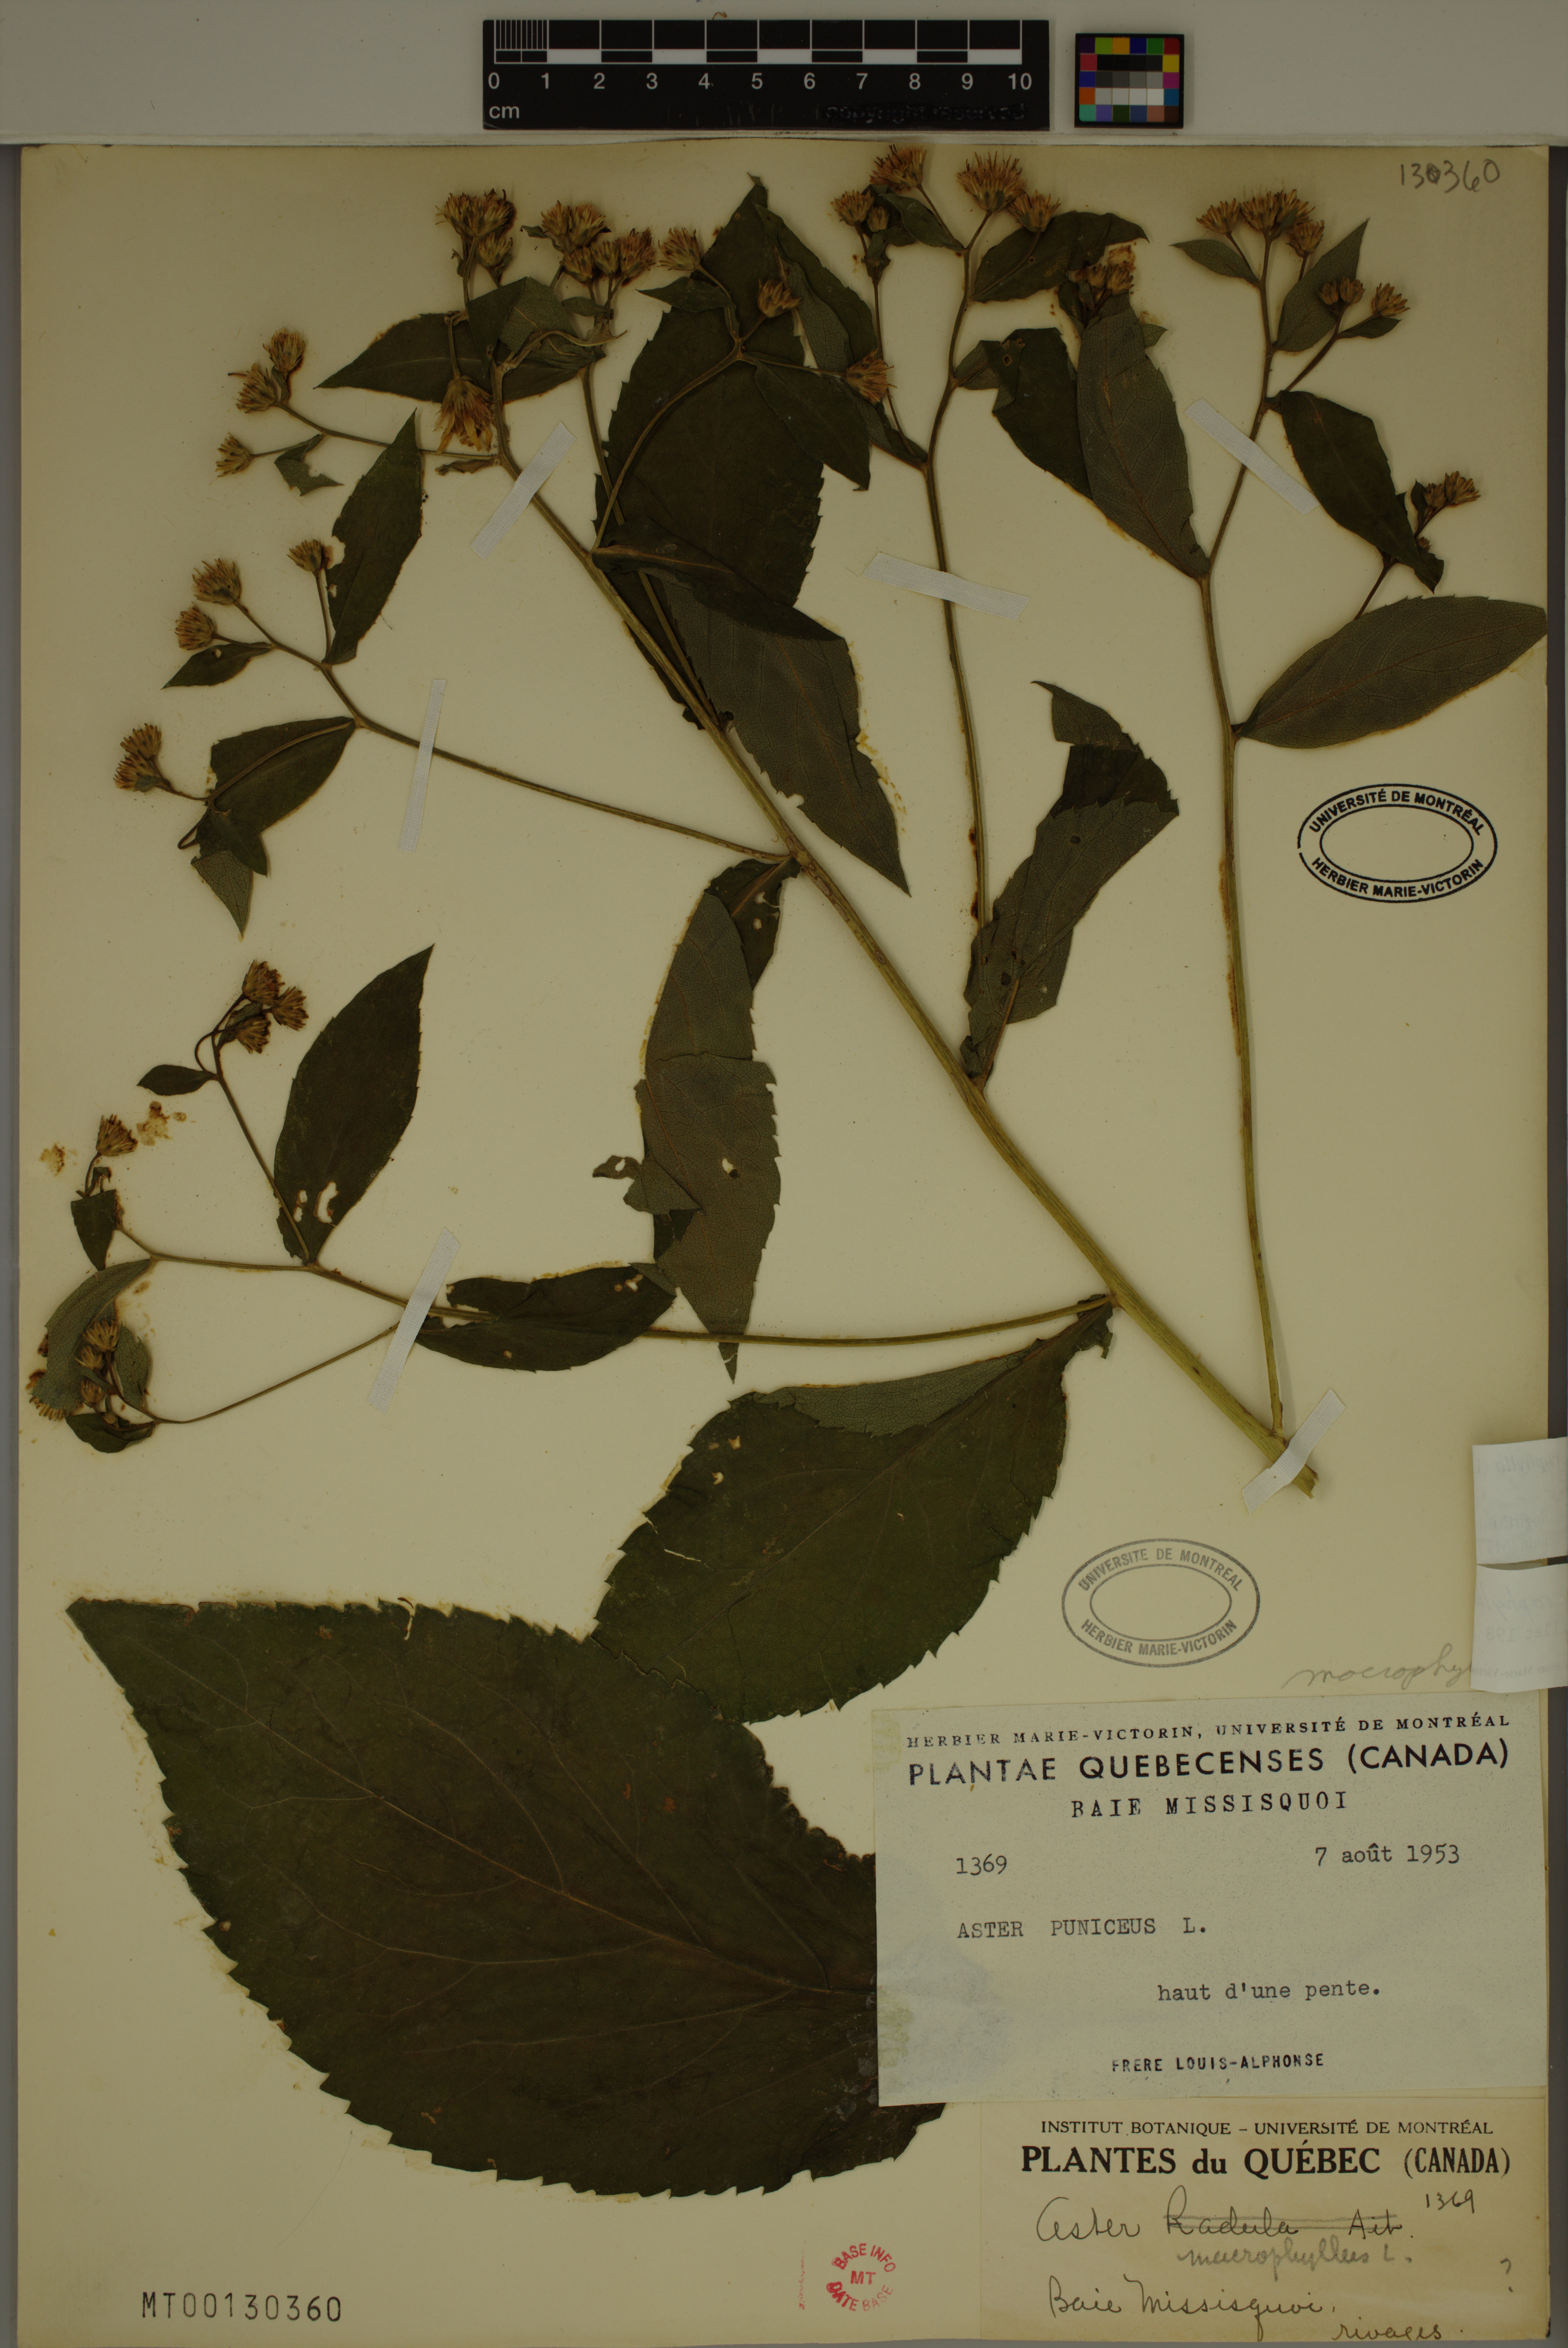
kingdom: Plantae
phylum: Tracheophyta
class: Magnoliopsida
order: Asterales
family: Asteraceae
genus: Eurybia
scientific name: Eurybia macrophylla
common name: Big-leaved aster
